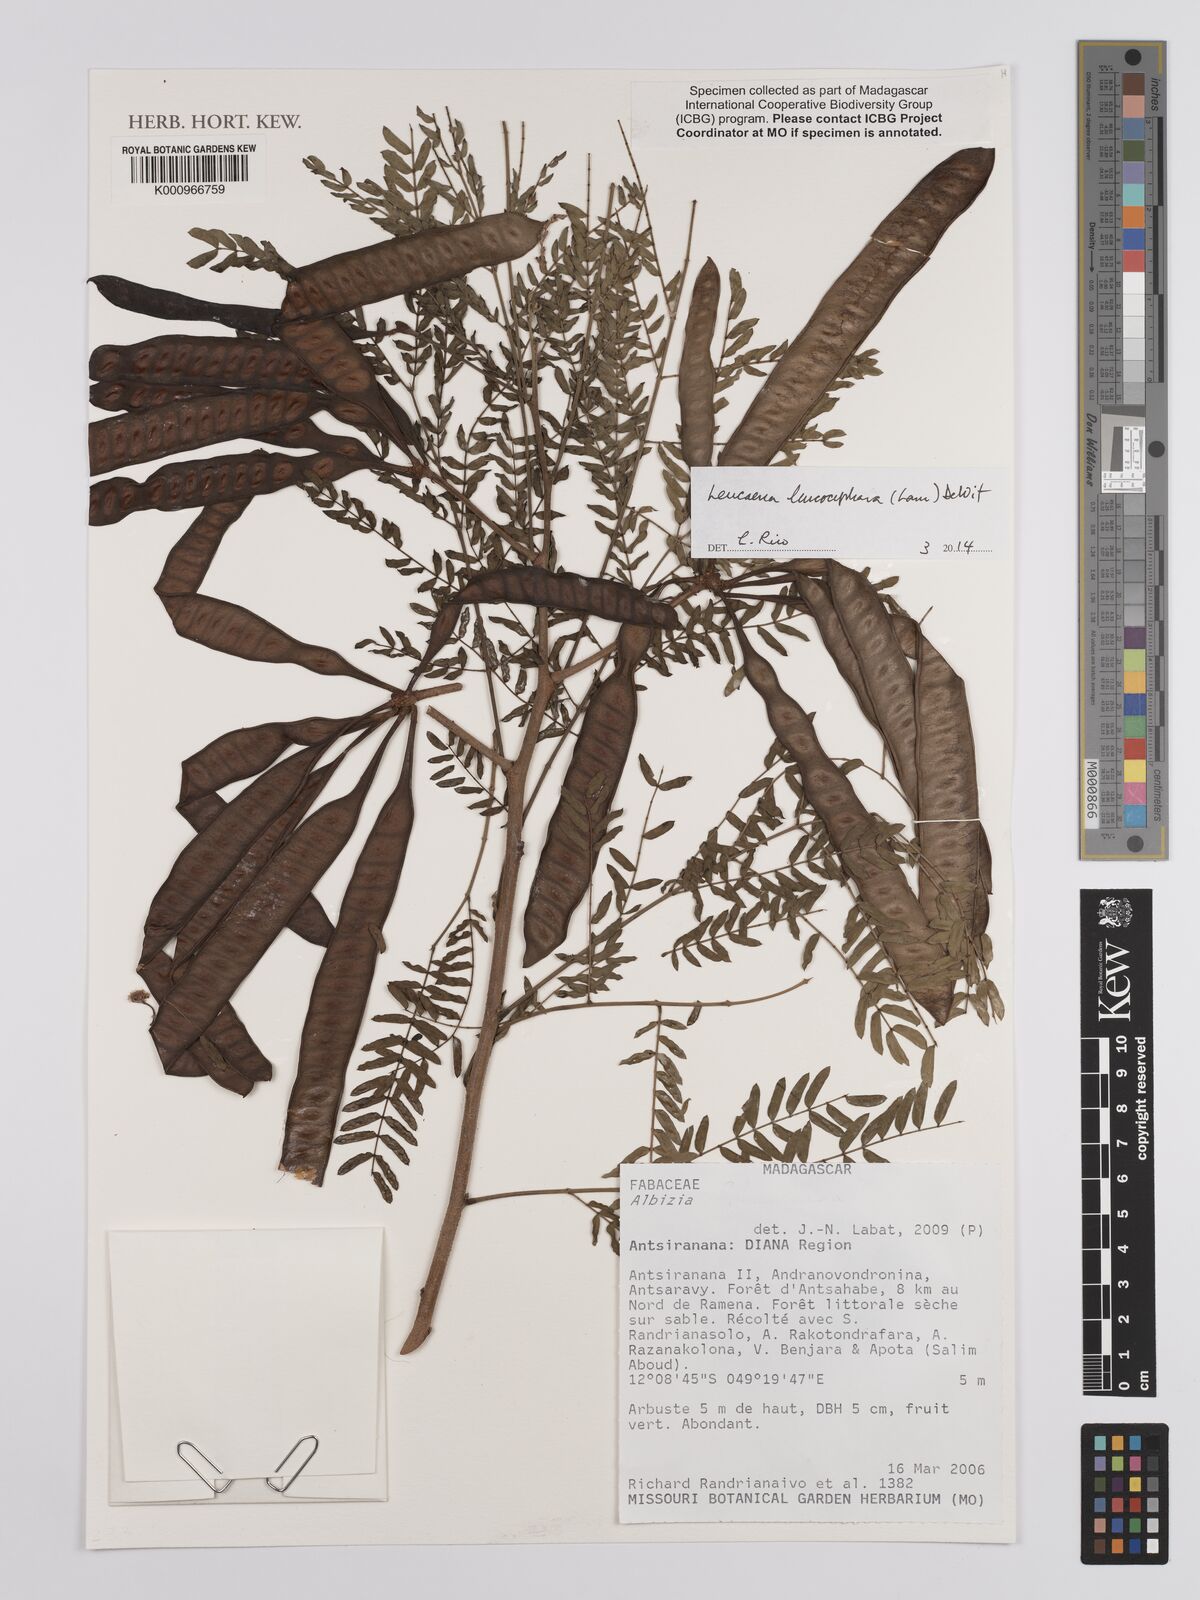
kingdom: Plantae
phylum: Tracheophyta
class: Magnoliopsida
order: Fabales
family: Fabaceae
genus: Leucaena
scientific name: Leucaena leucocephala
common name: White leadtree
